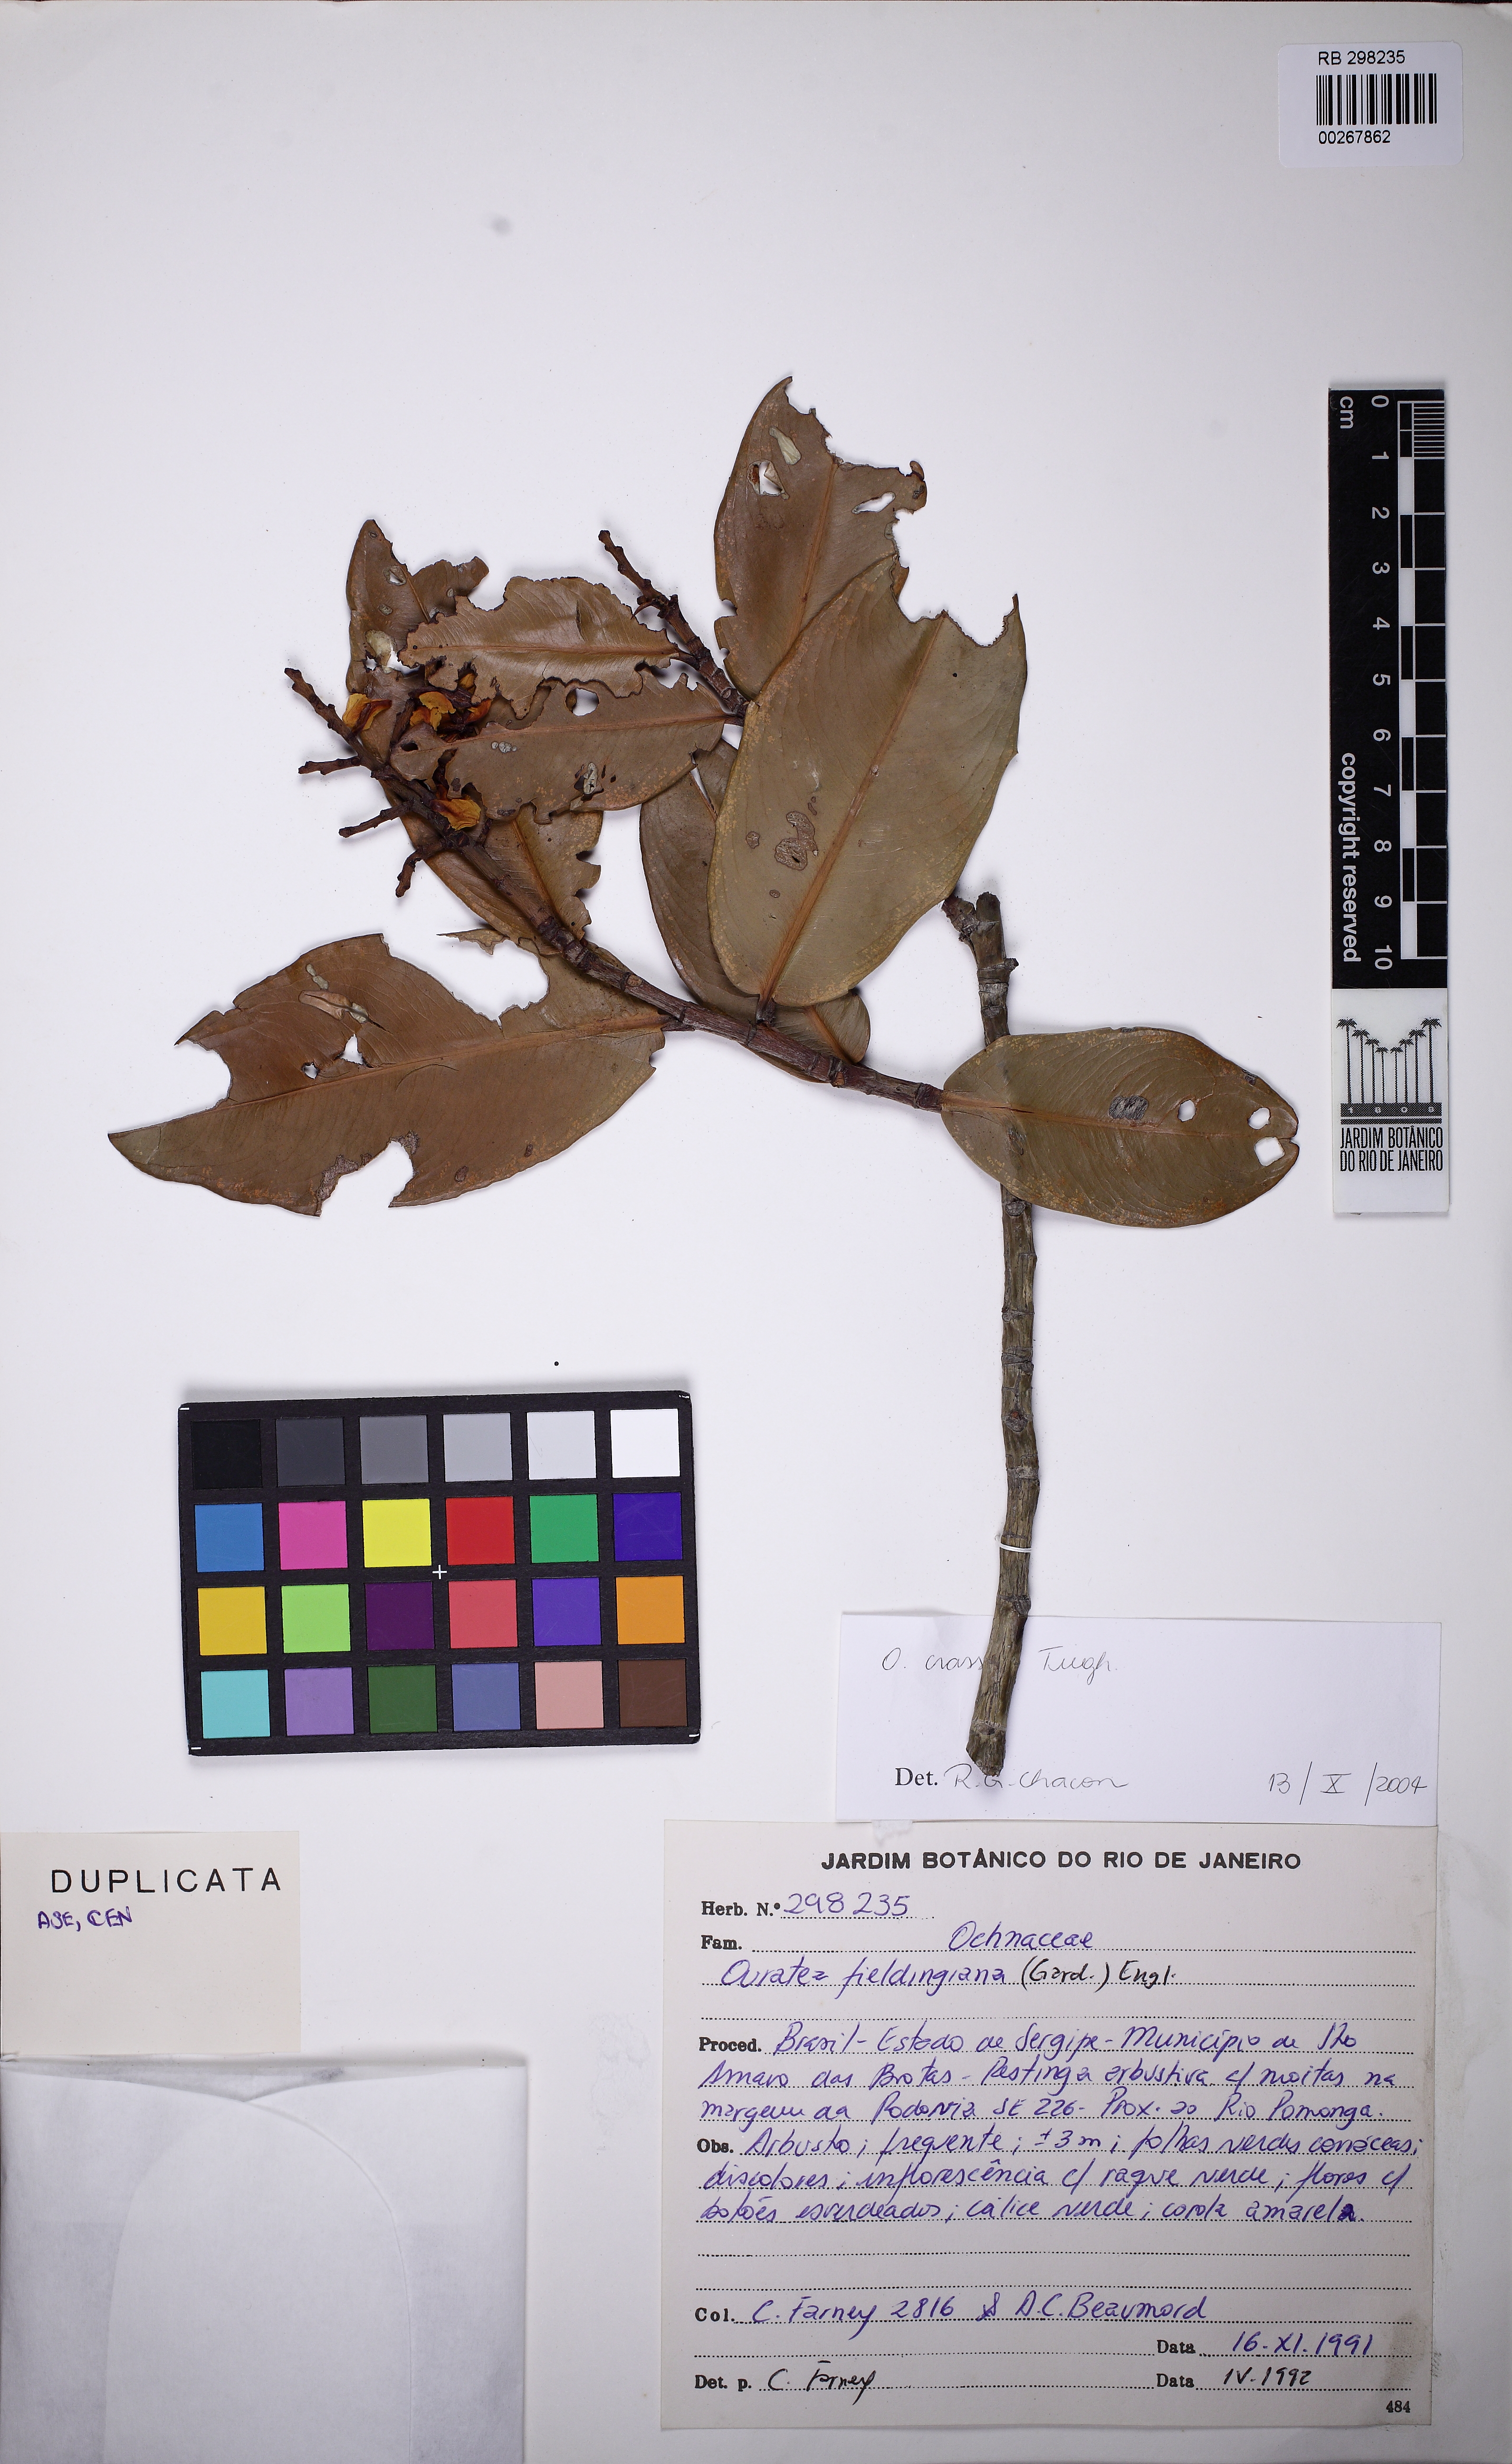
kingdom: Plantae
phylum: Tracheophyta
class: Magnoliopsida
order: Malpighiales
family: Ochnaceae
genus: Ouratea
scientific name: Ouratea crassa
